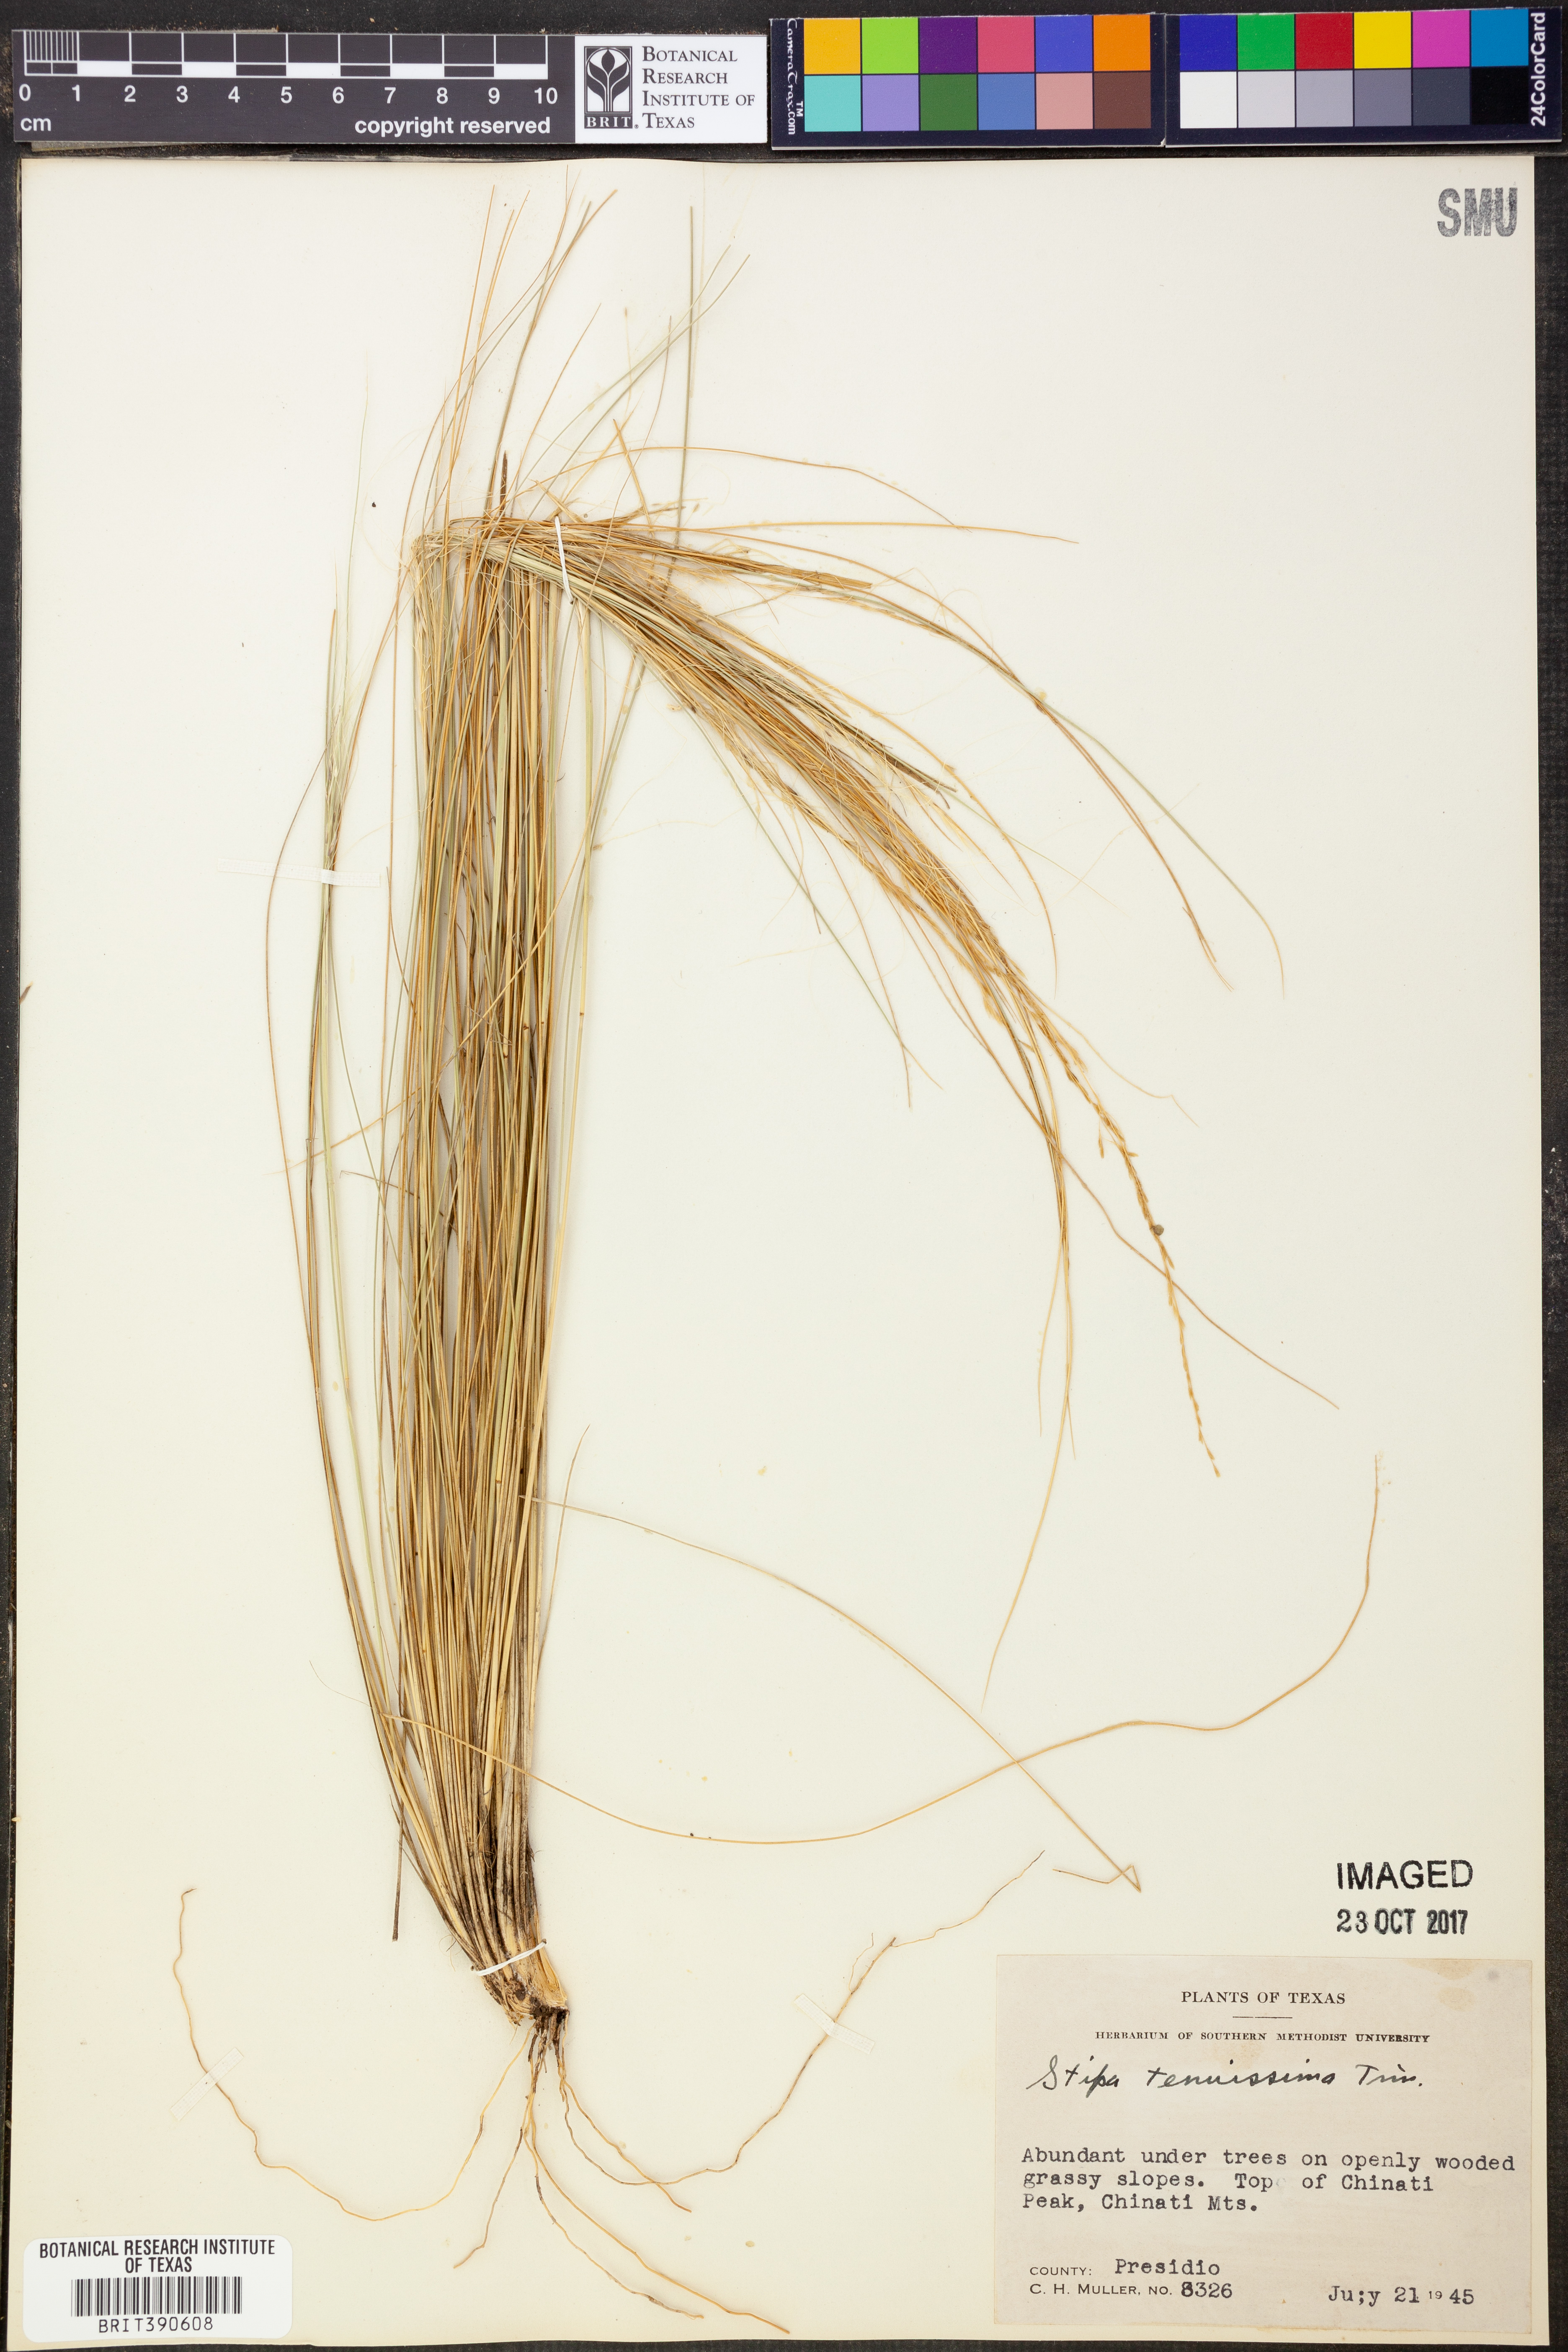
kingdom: Plantae
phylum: Tracheophyta
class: Liliopsida
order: Poales
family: Poaceae
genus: Nassella
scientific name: Nassella tenuissima
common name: Argentine needlegrass
